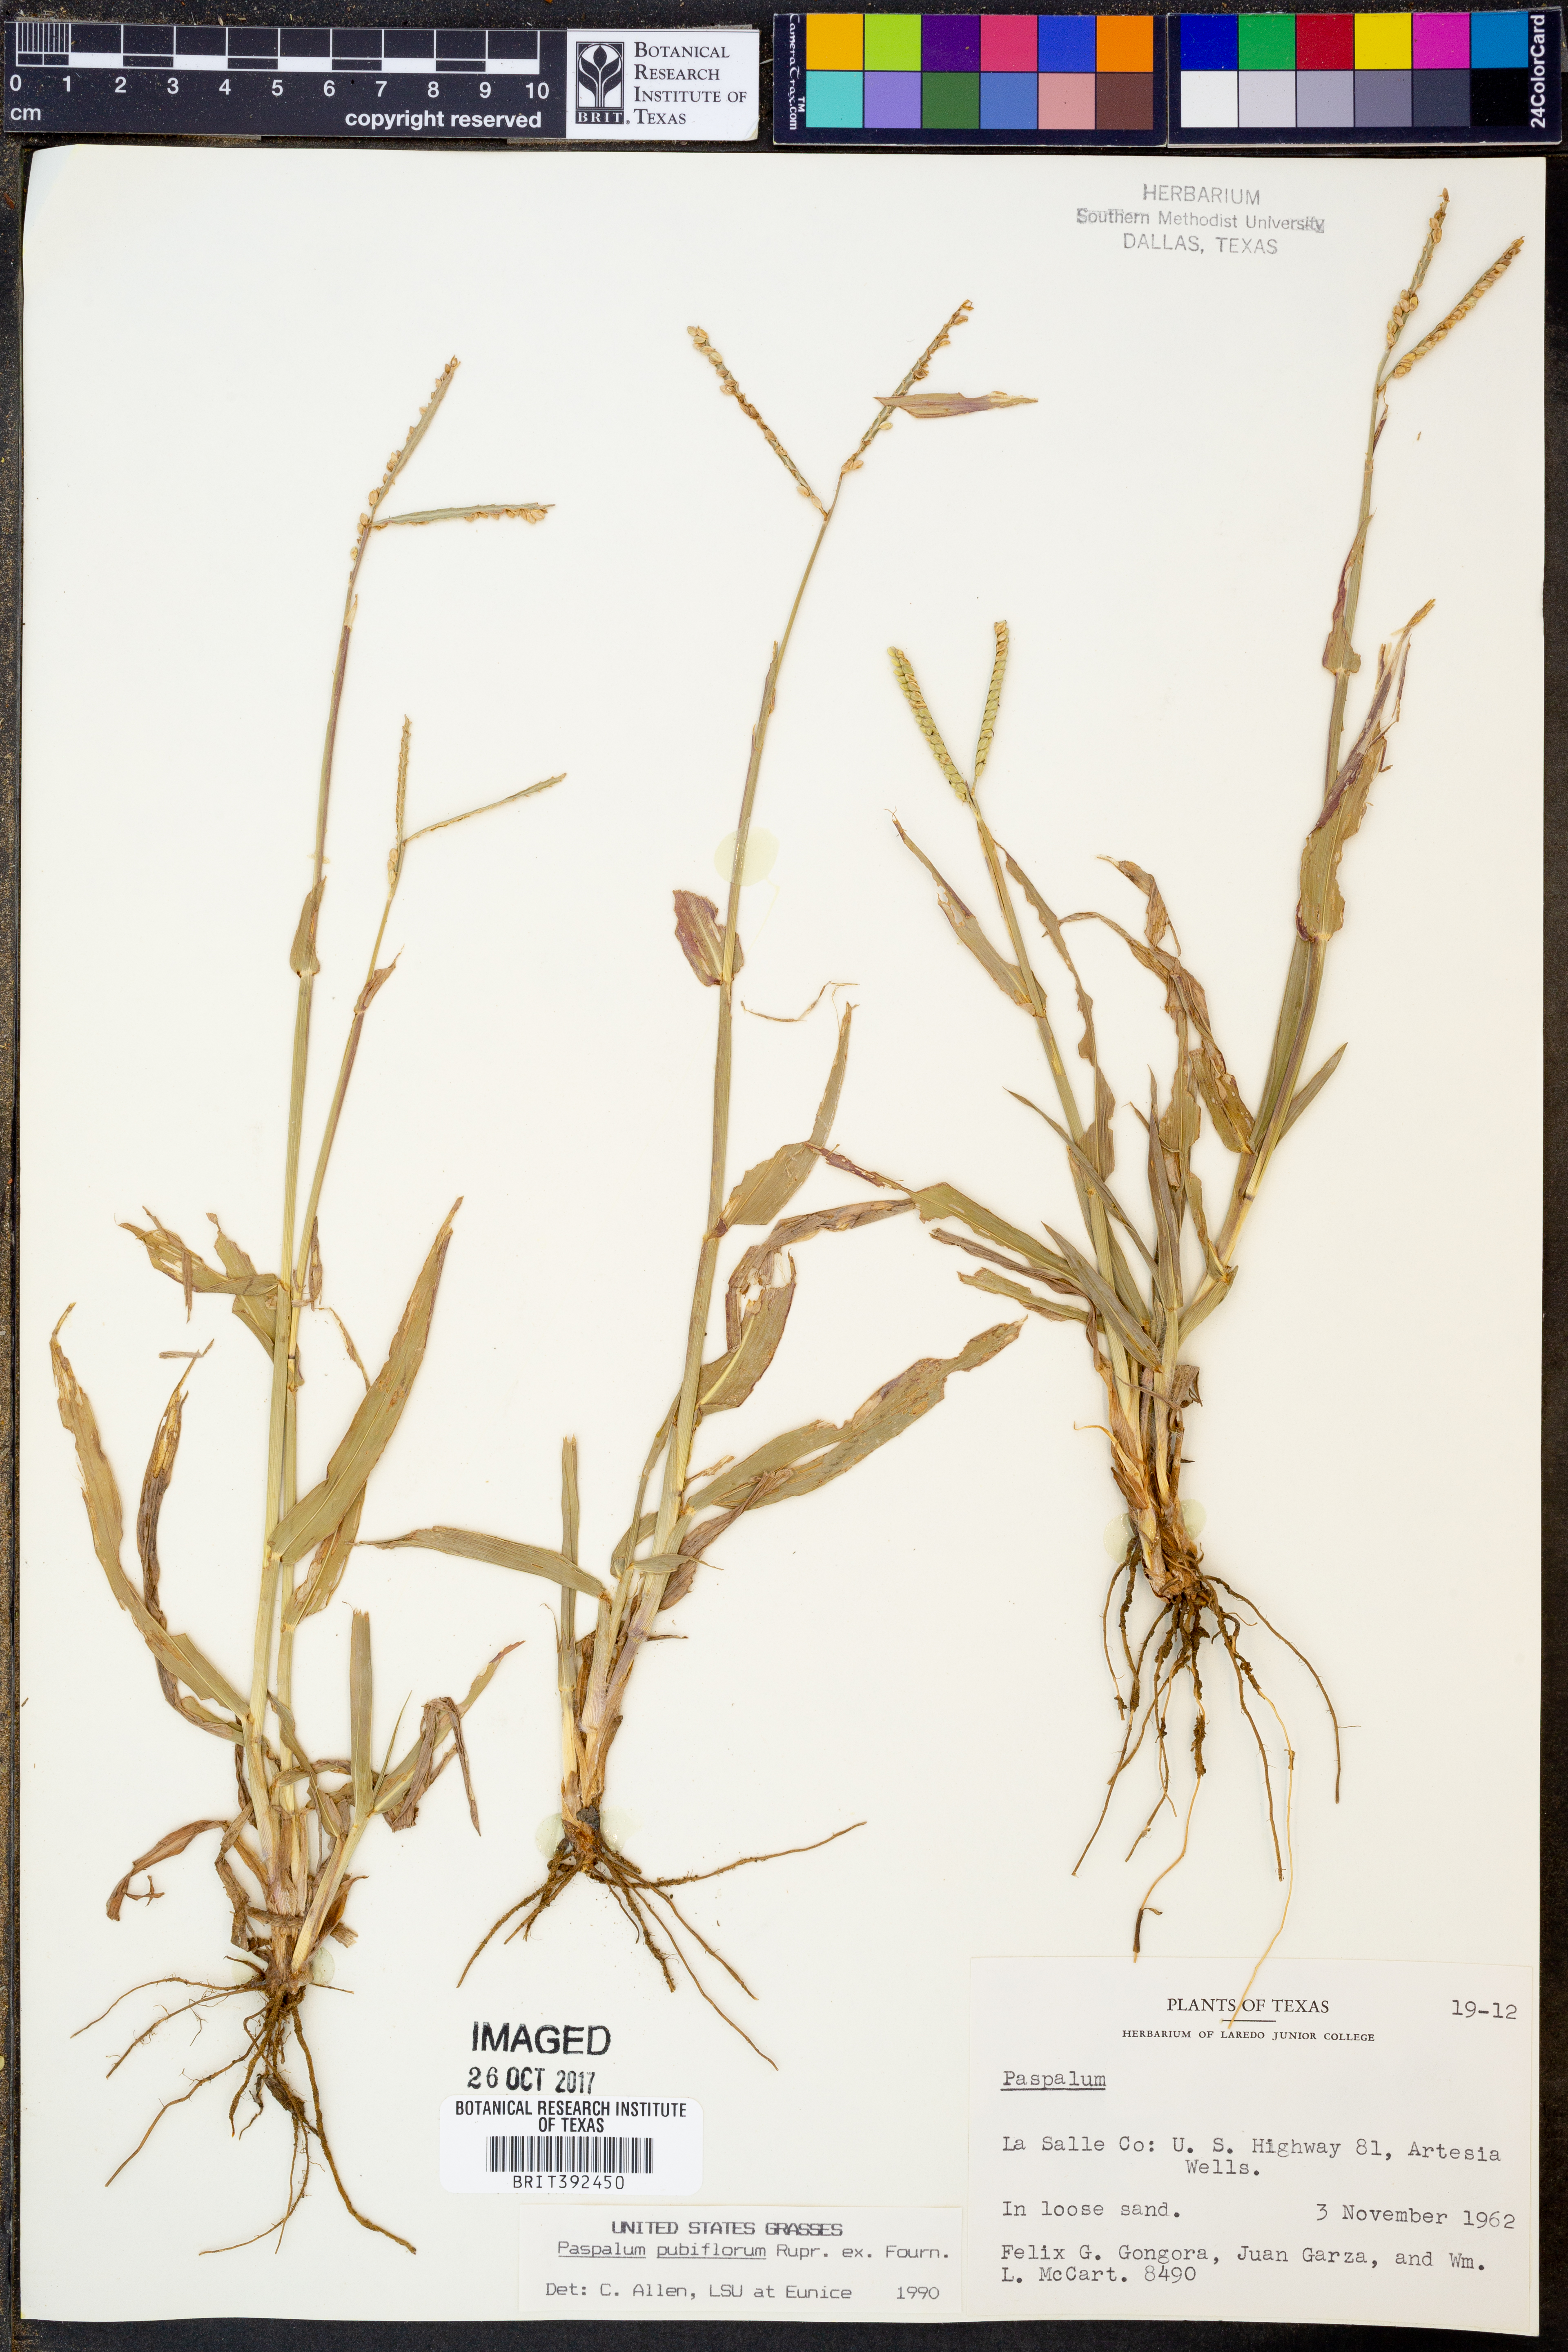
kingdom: Plantae
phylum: Tracheophyta
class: Liliopsida
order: Poales
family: Poaceae
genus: Paspalum
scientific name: Paspalum pubiflorum
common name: Hairy-seed paspalum
